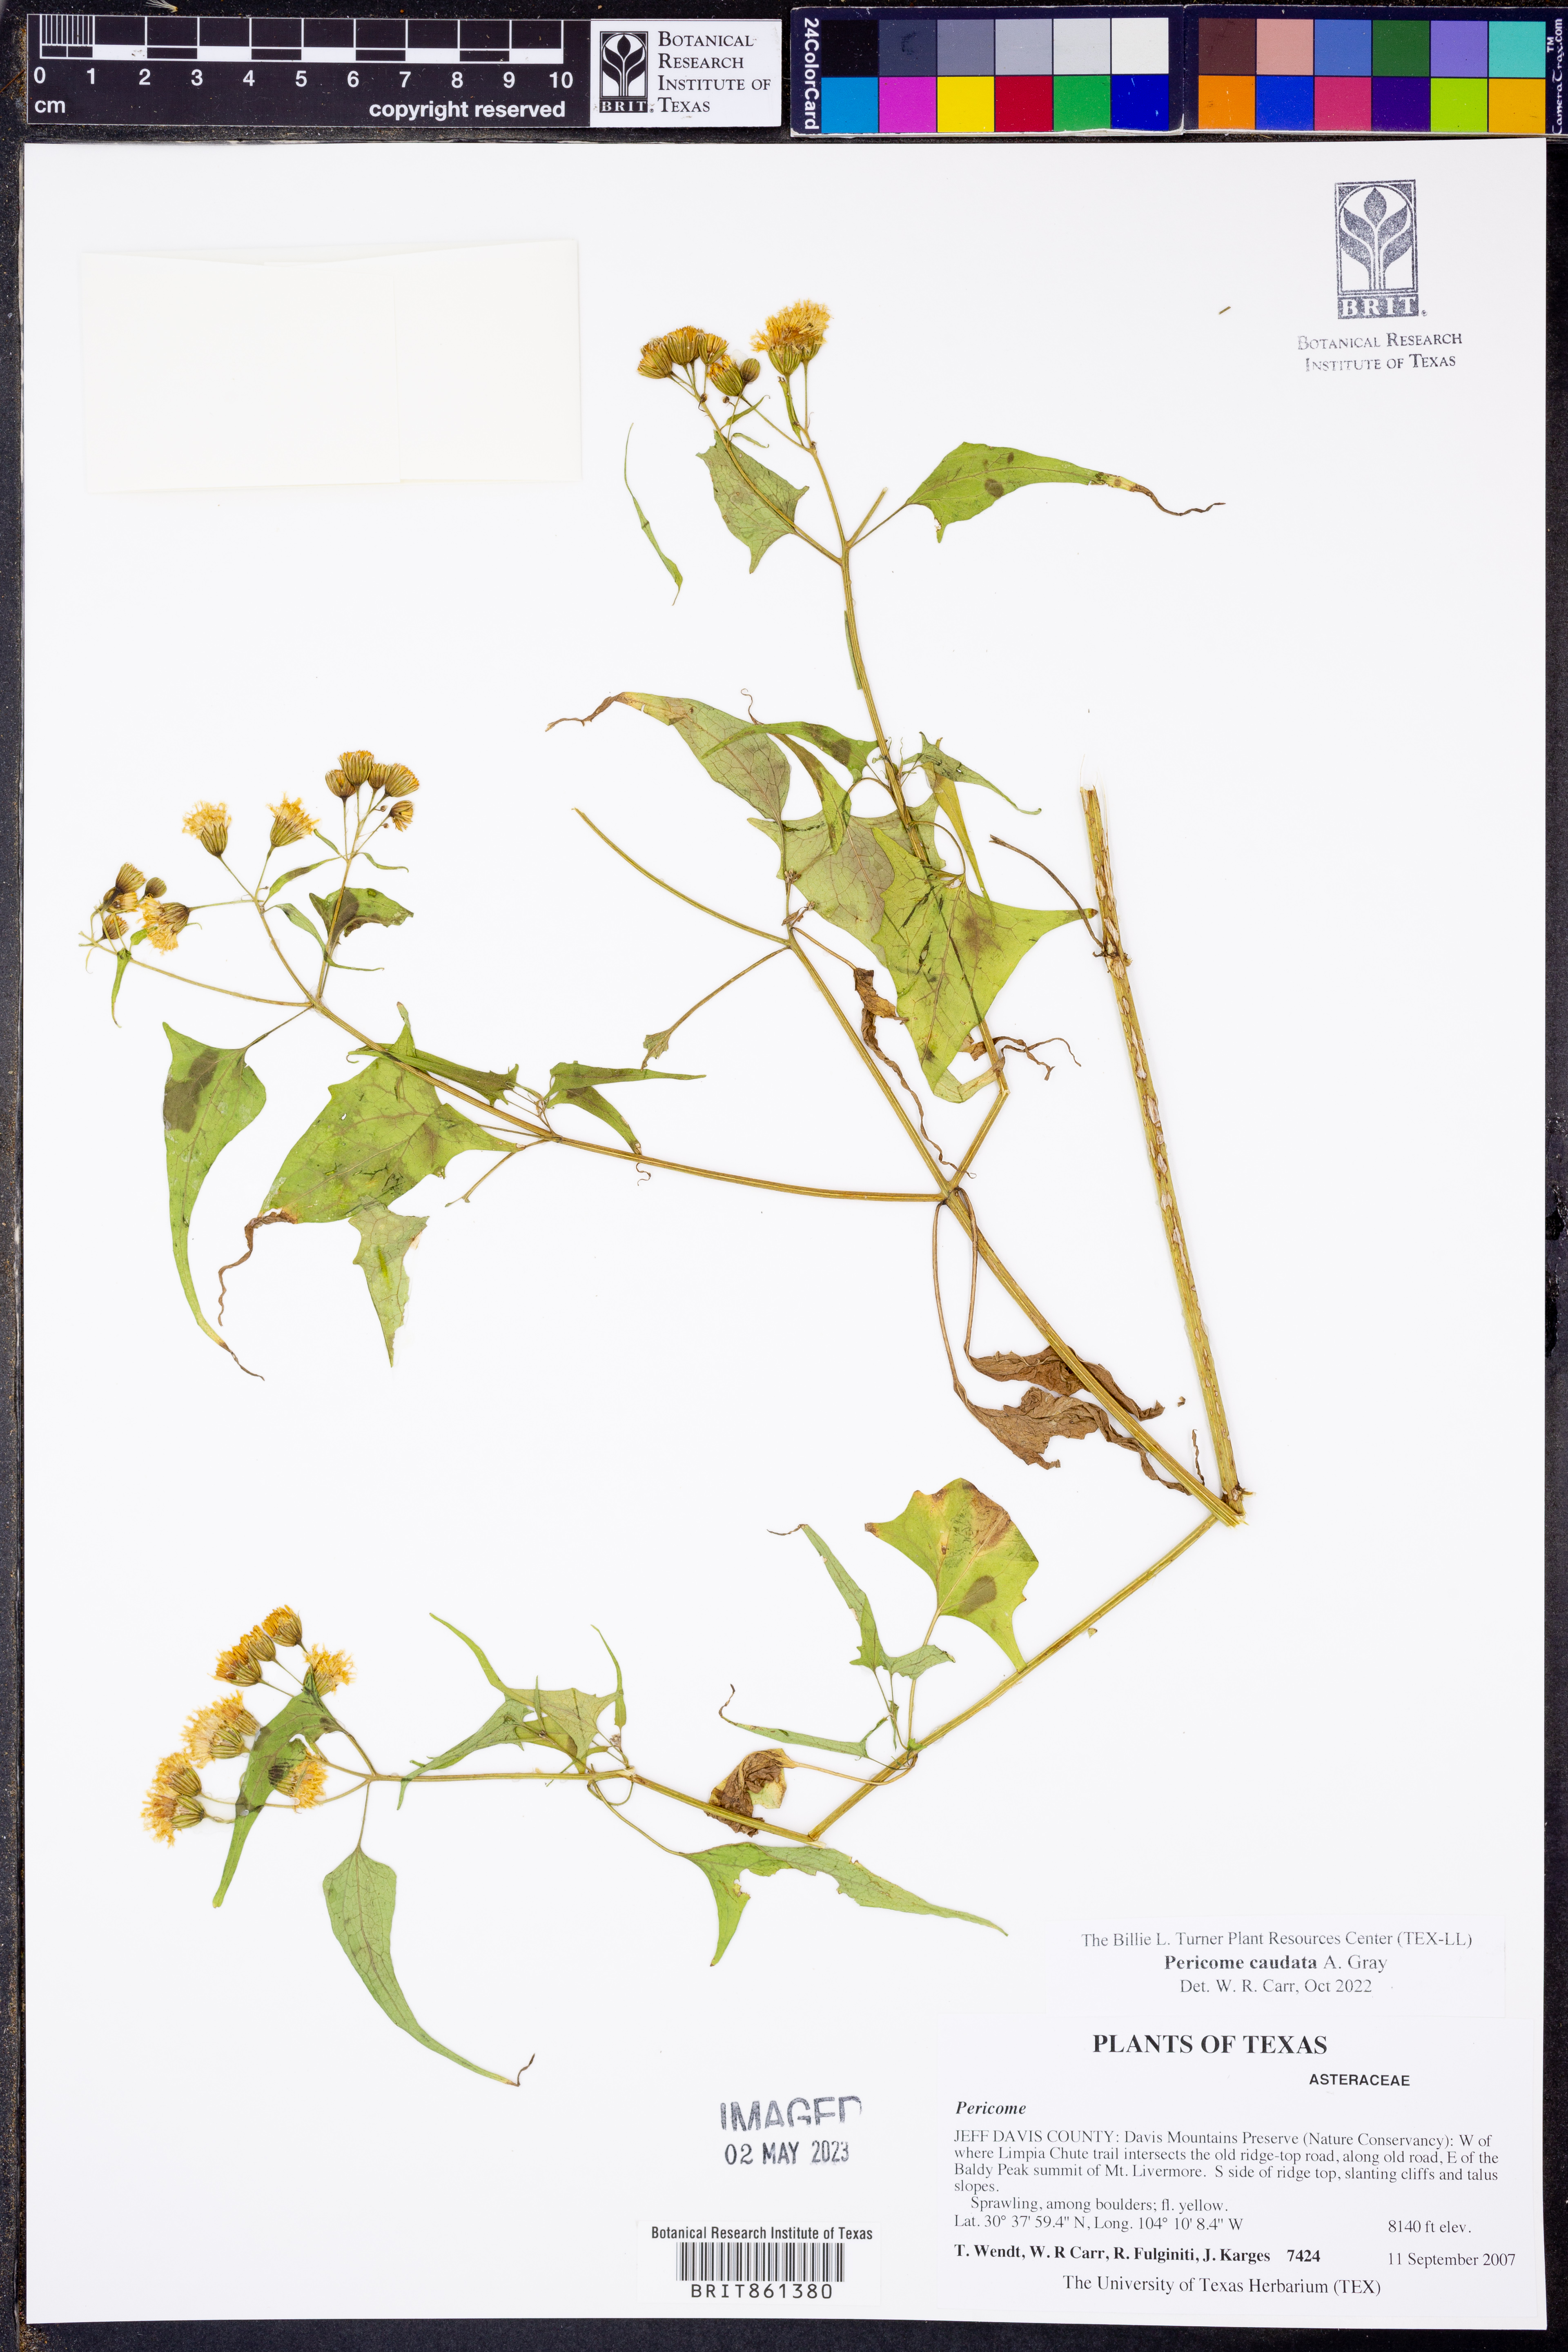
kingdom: Plantae
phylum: Tracheophyta
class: Magnoliopsida
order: Asterales
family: Asteraceae
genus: Pericome
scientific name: Pericome caudata
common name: Taperleaf
